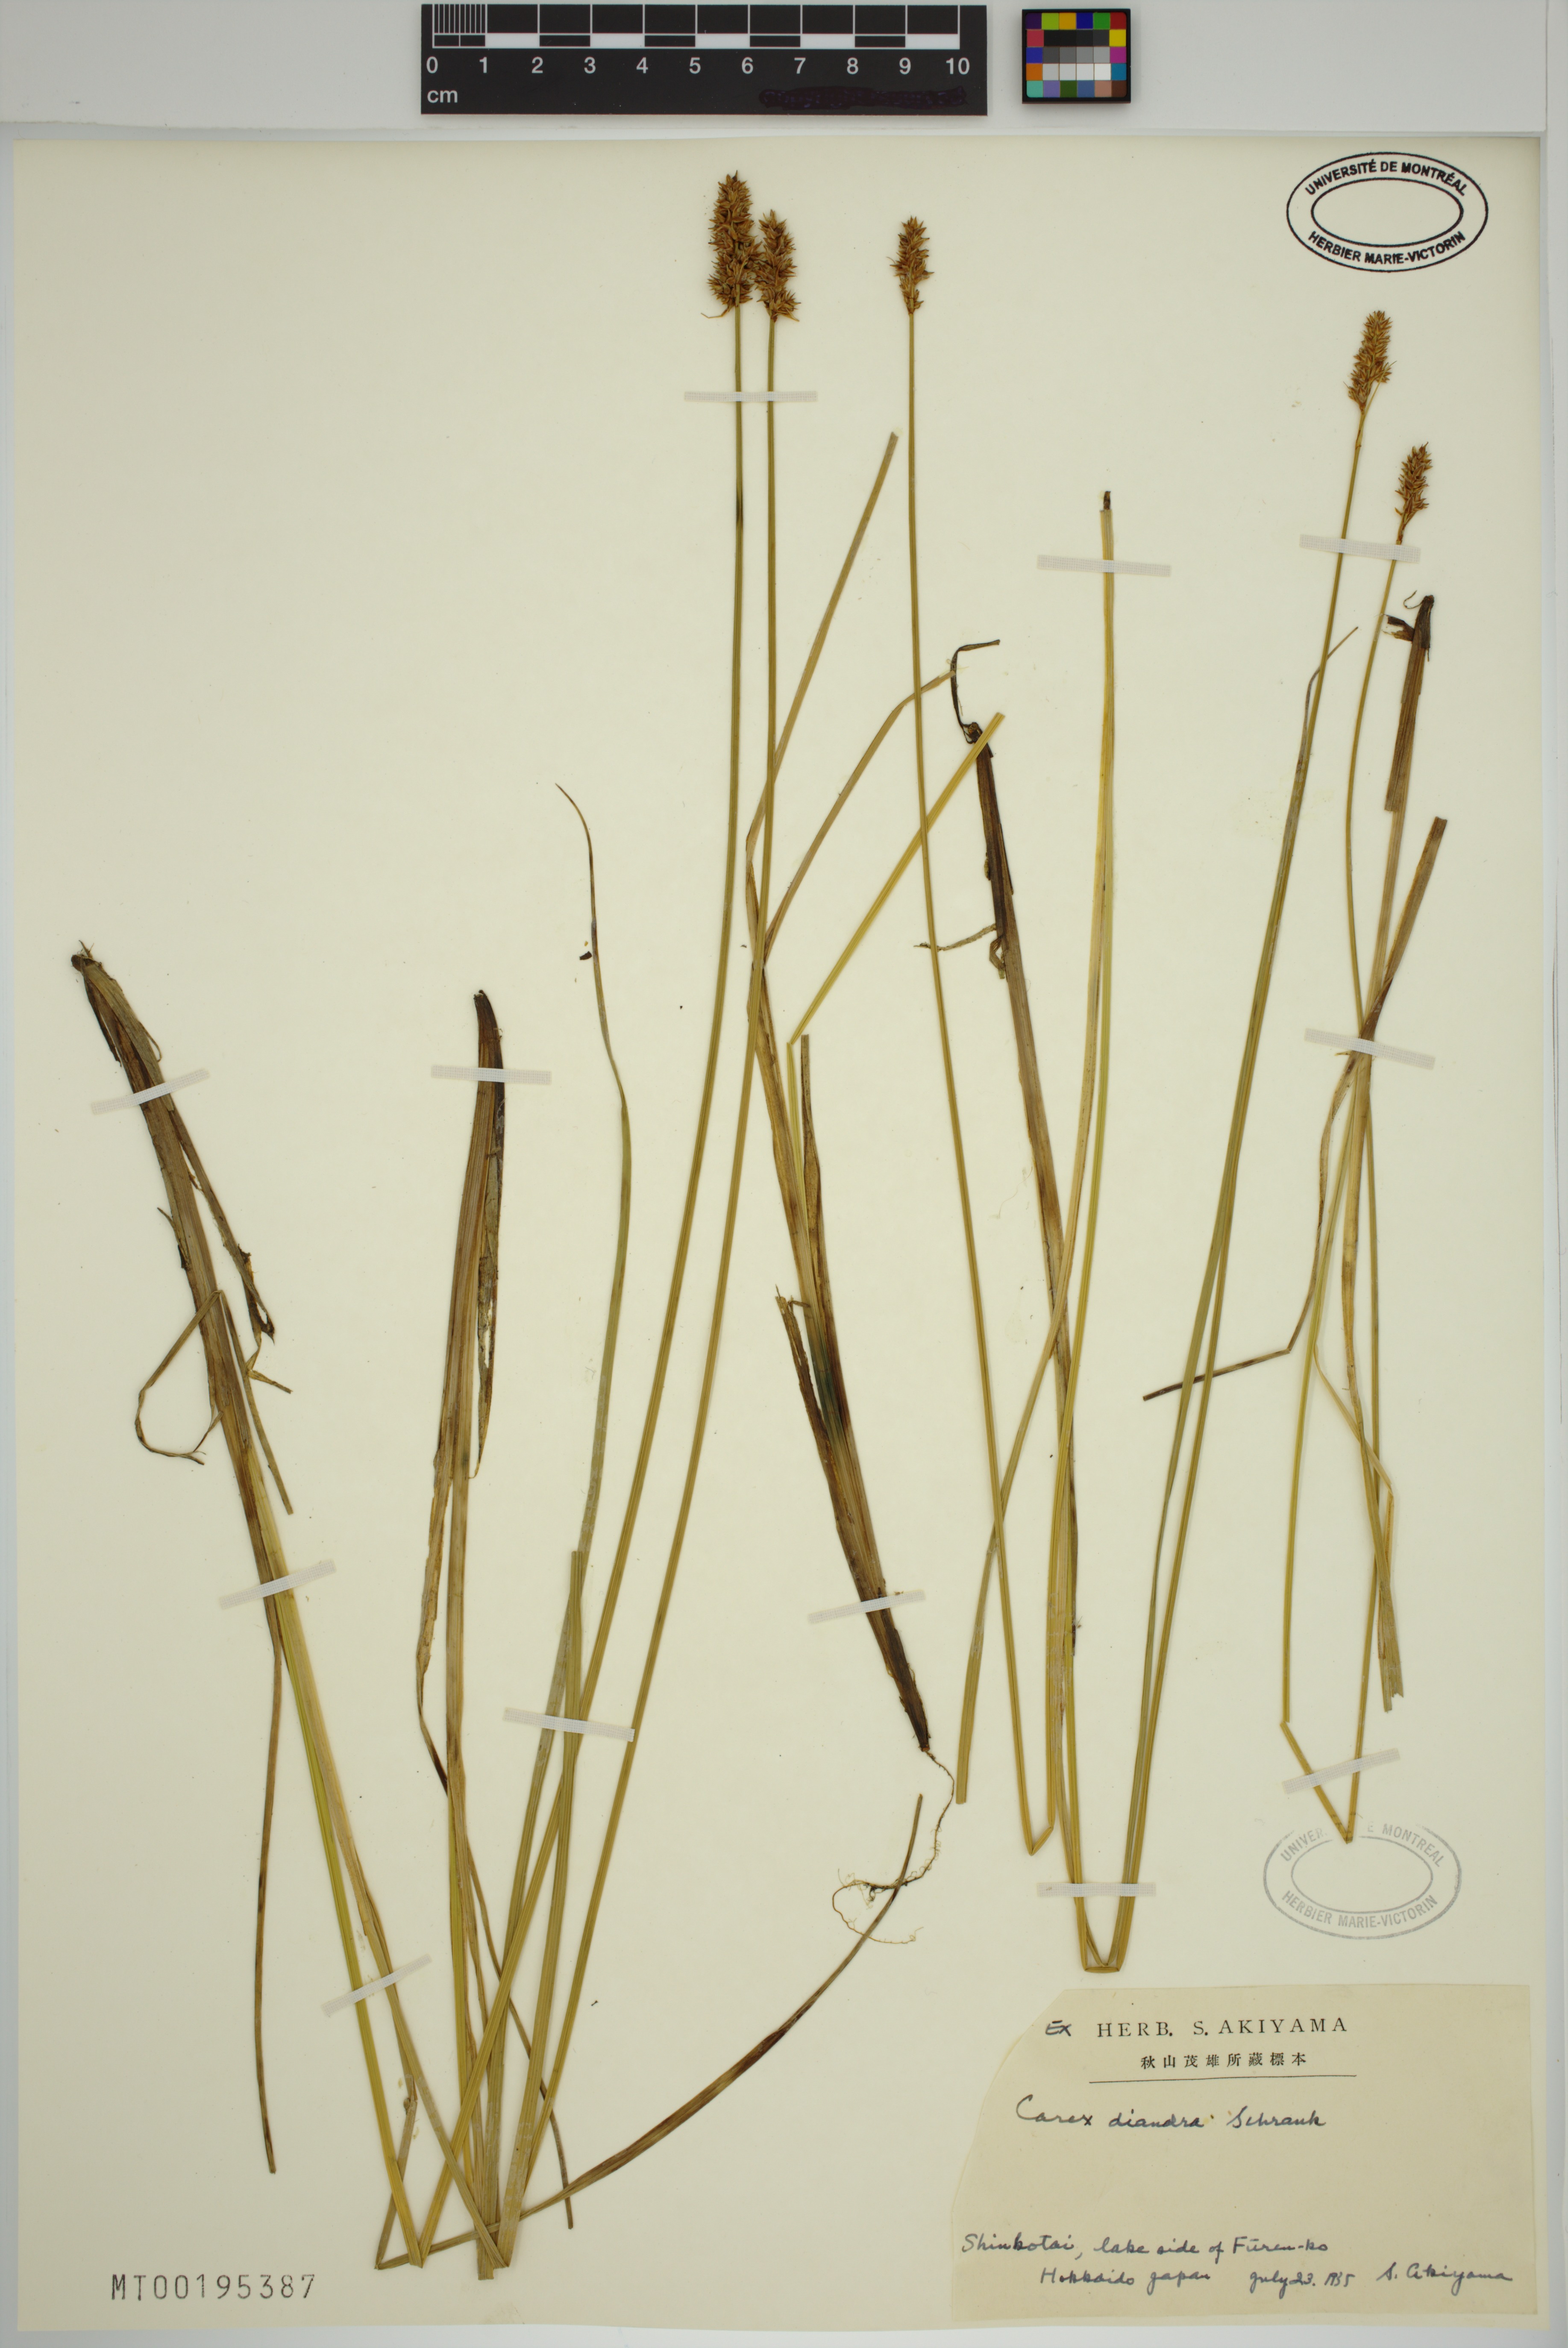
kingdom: Plantae
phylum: Tracheophyta
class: Liliopsida
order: Poales
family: Cyperaceae
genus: Carex
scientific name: Carex diandra
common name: Lesser tussock-sedge
